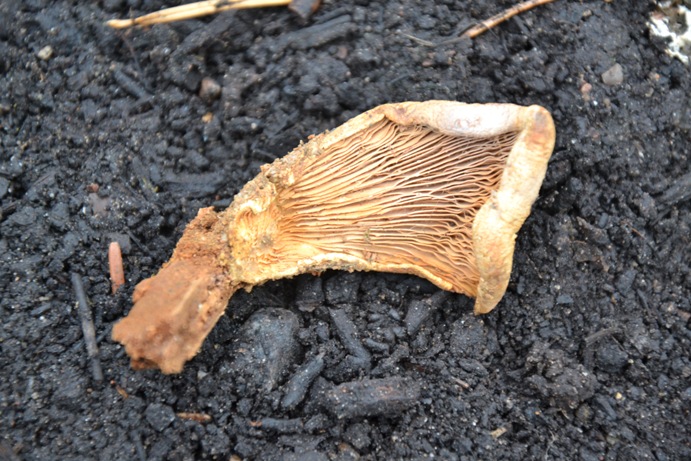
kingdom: Fungi
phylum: Basidiomycota
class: Agaricomycetes
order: Boletales
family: Tapinellaceae
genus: Tapinella
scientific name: Tapinella panuoides
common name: tømmer-viftesvamp
